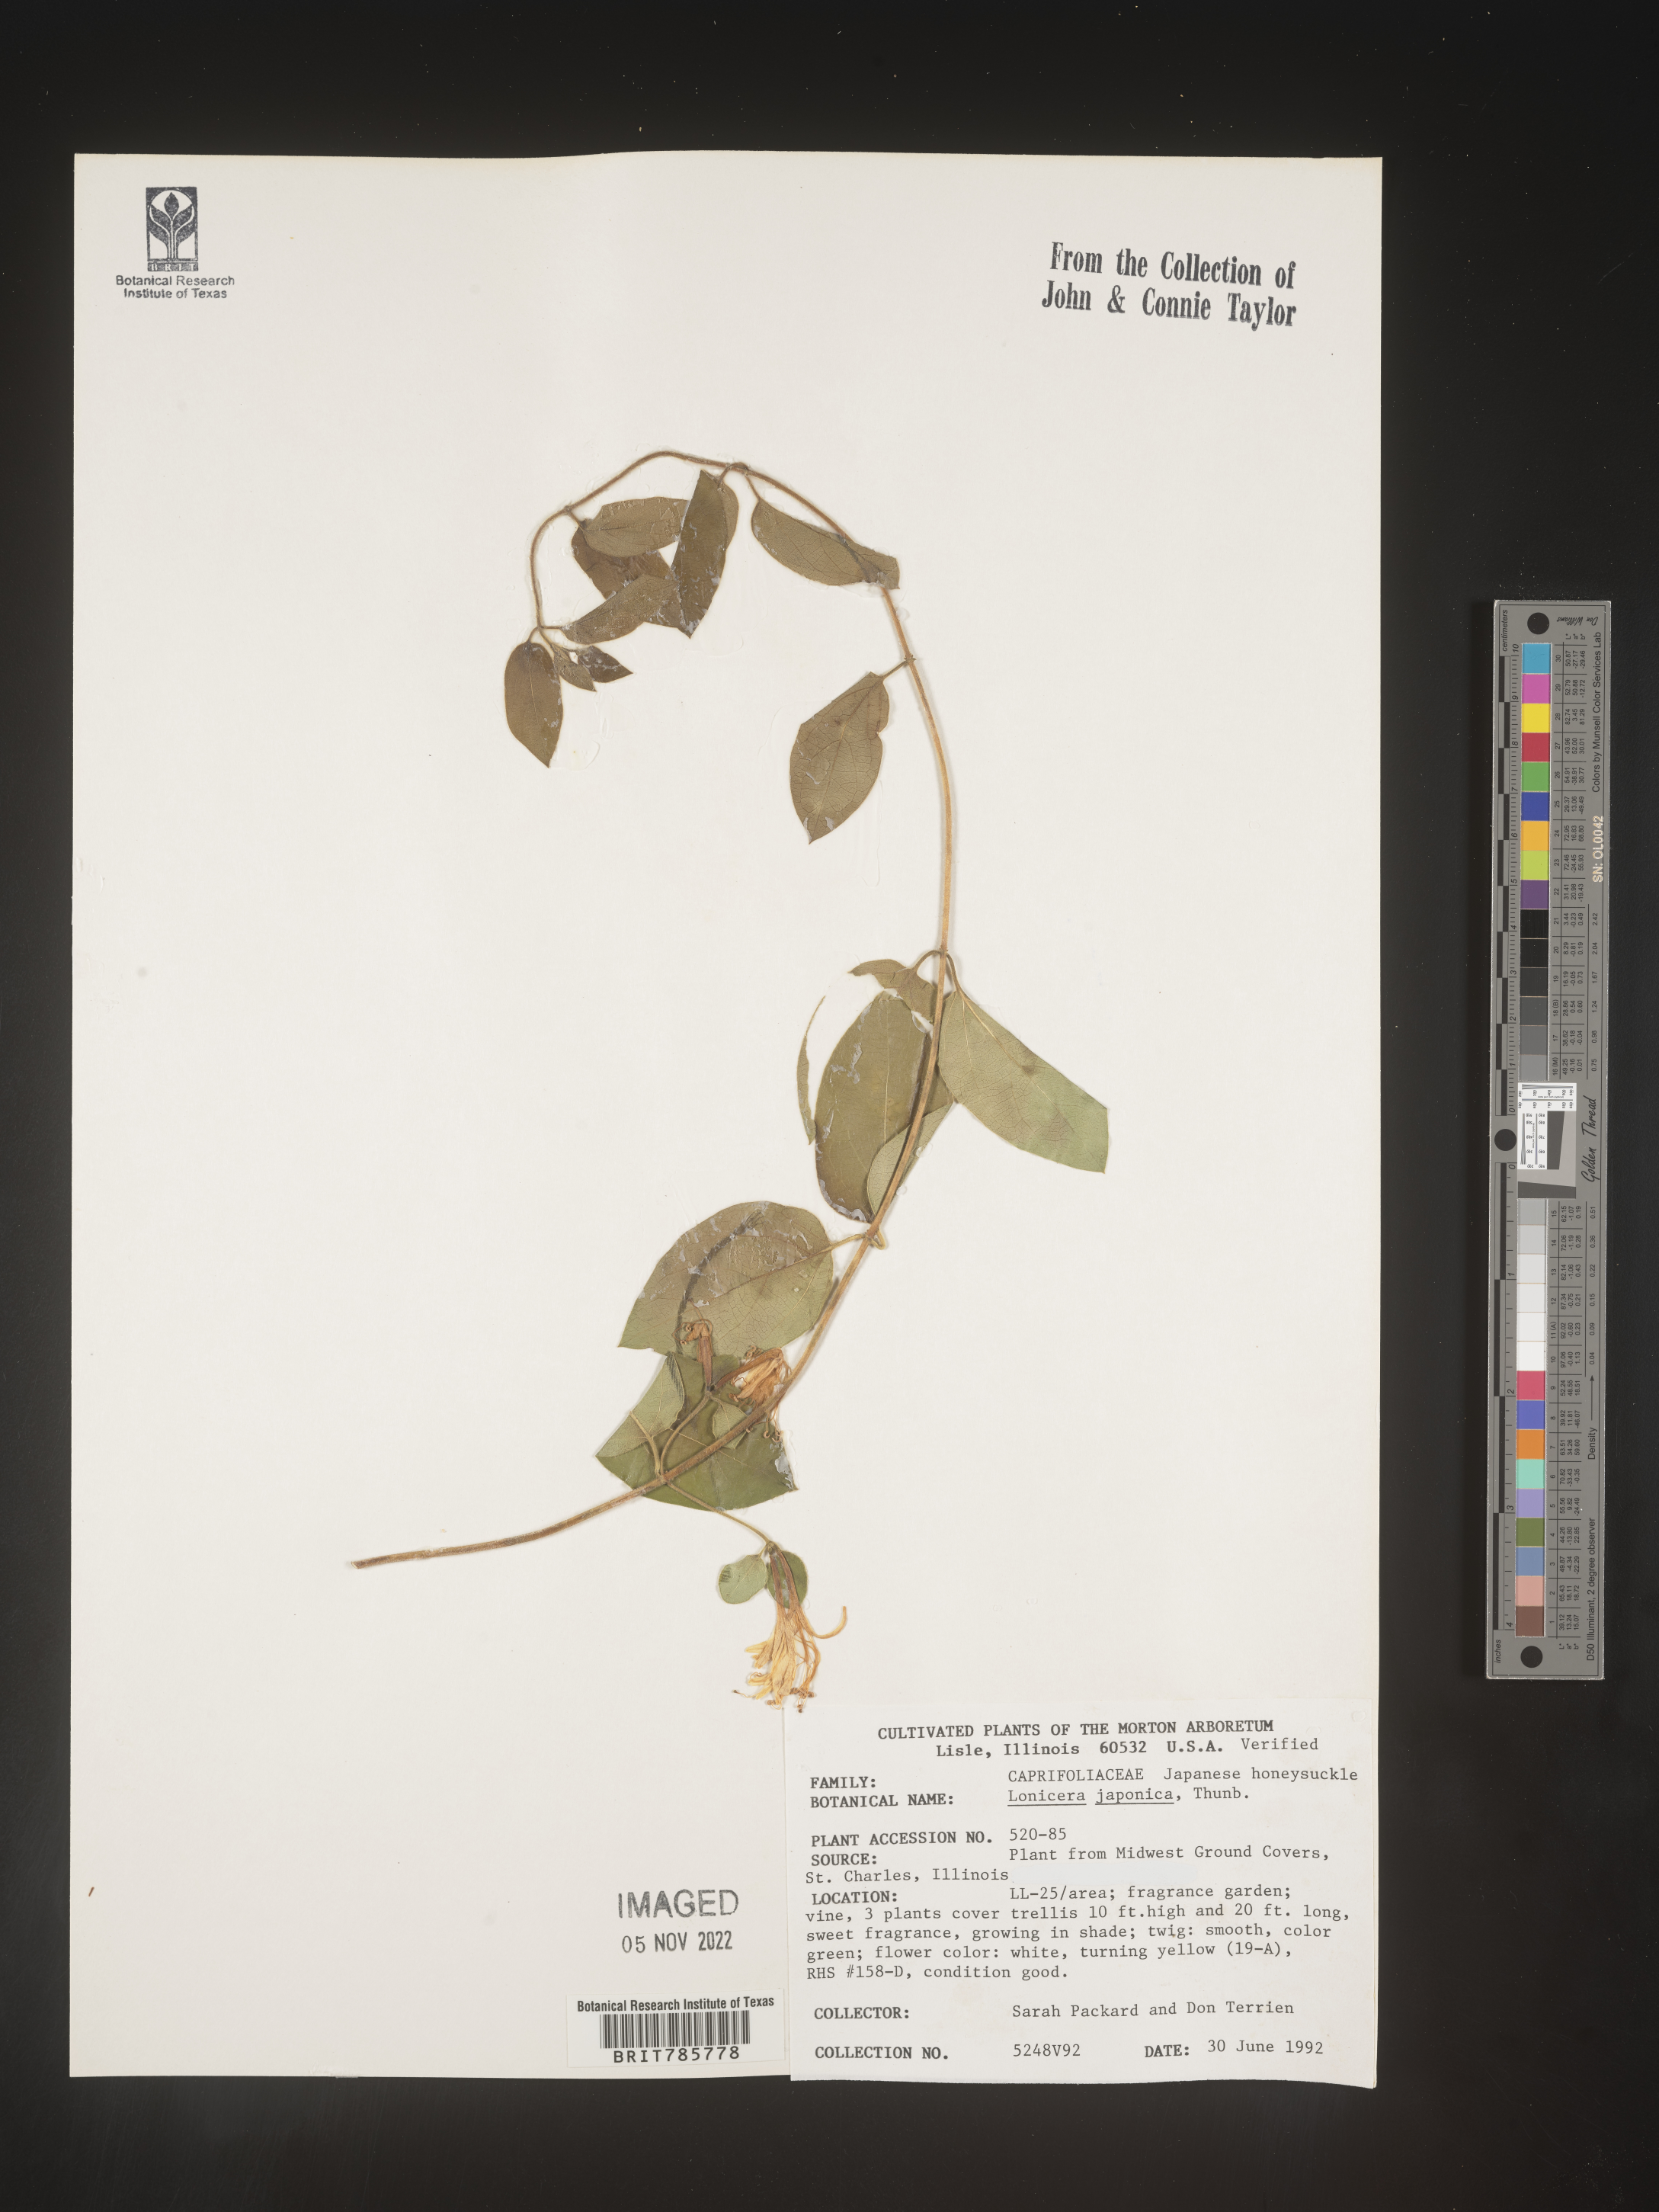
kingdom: Plantae
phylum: Tracheophyta
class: Magnoliopsida
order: Dipsacales
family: Caprifoliaceae
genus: Lonicera
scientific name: Lonicera
